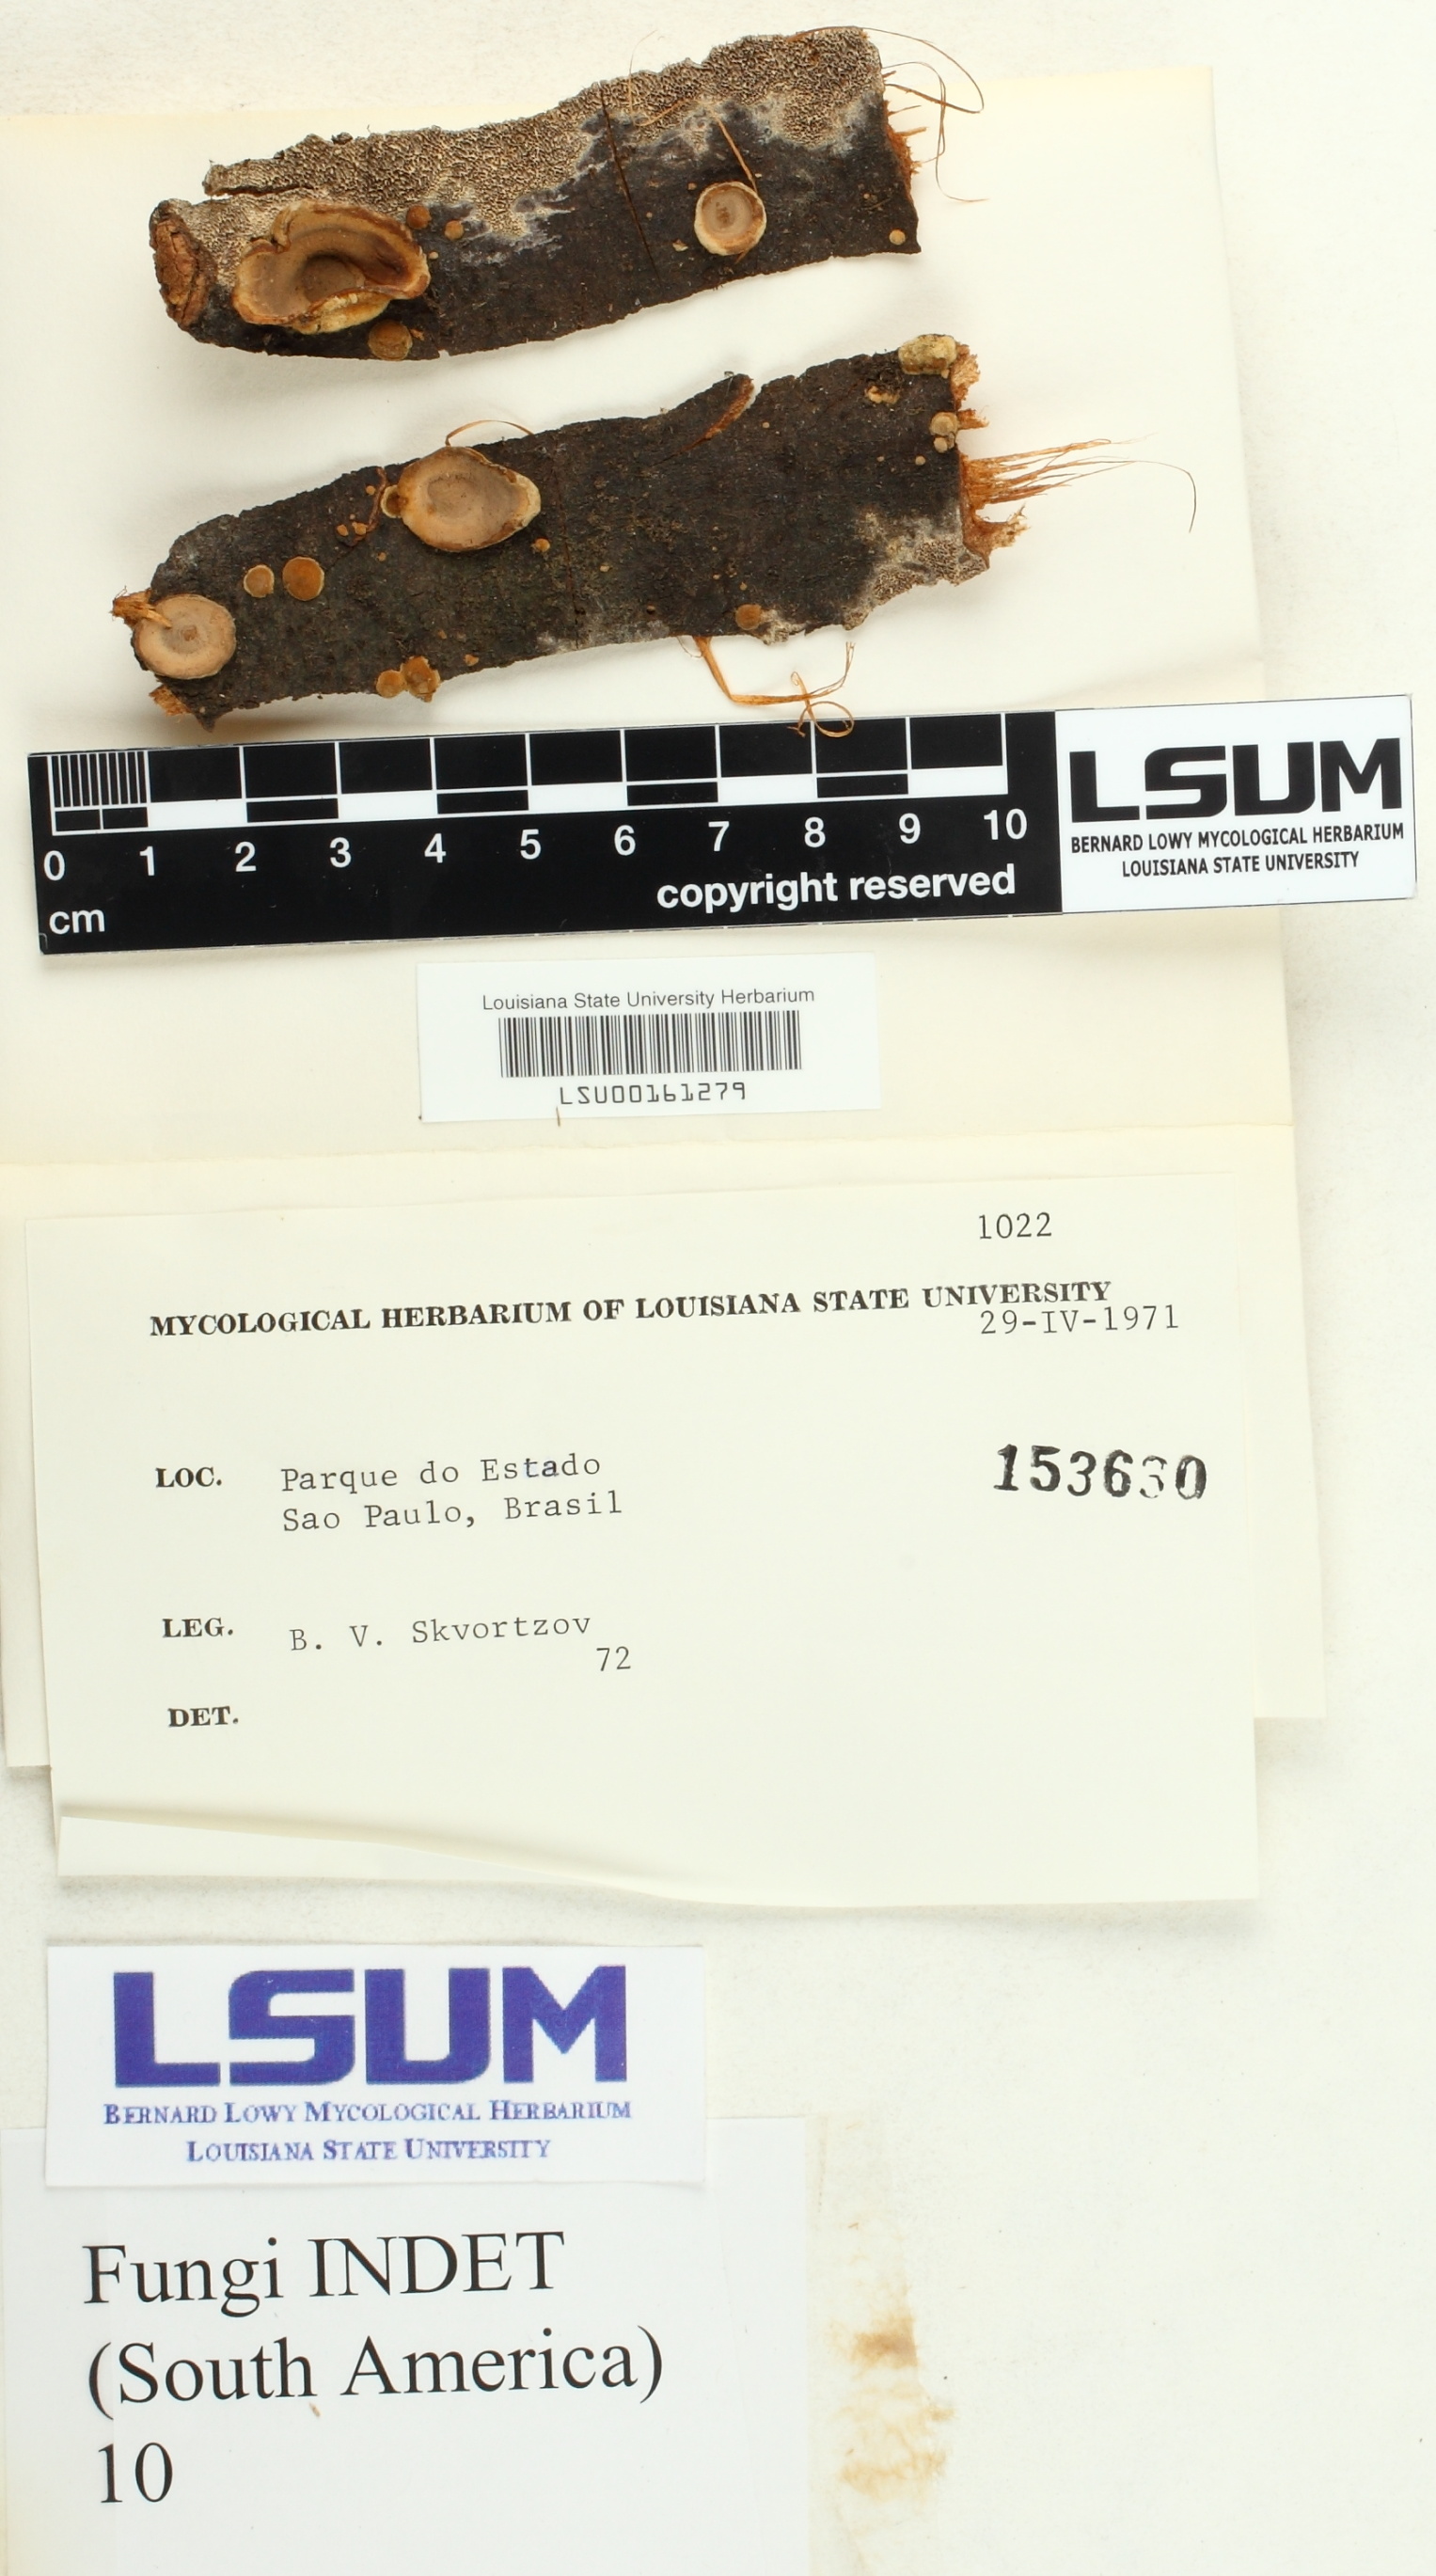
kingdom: Fungi
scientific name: Fungi
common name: Fungi
